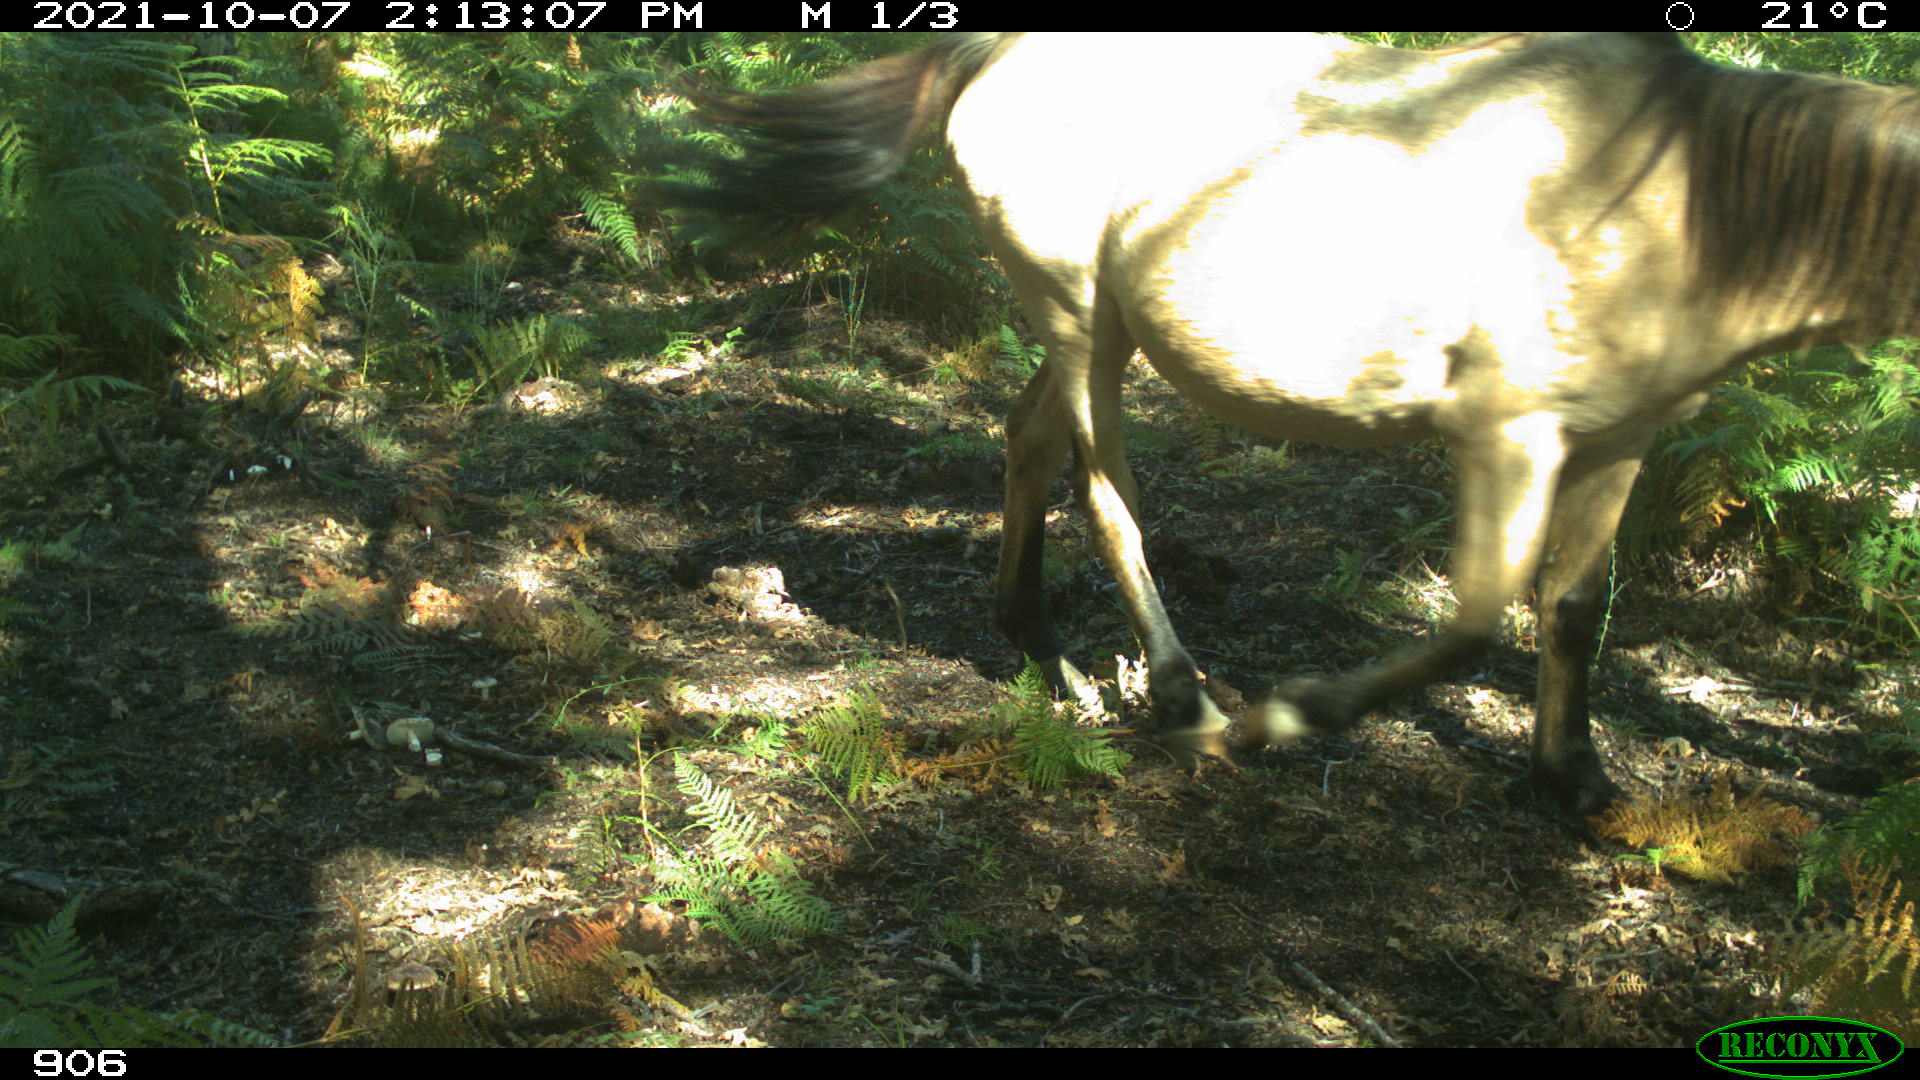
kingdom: Animalia
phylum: Chordata
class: Mammalia
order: Perissodactyla
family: Equidae
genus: Equus
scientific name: Equus caballus
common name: Horse
